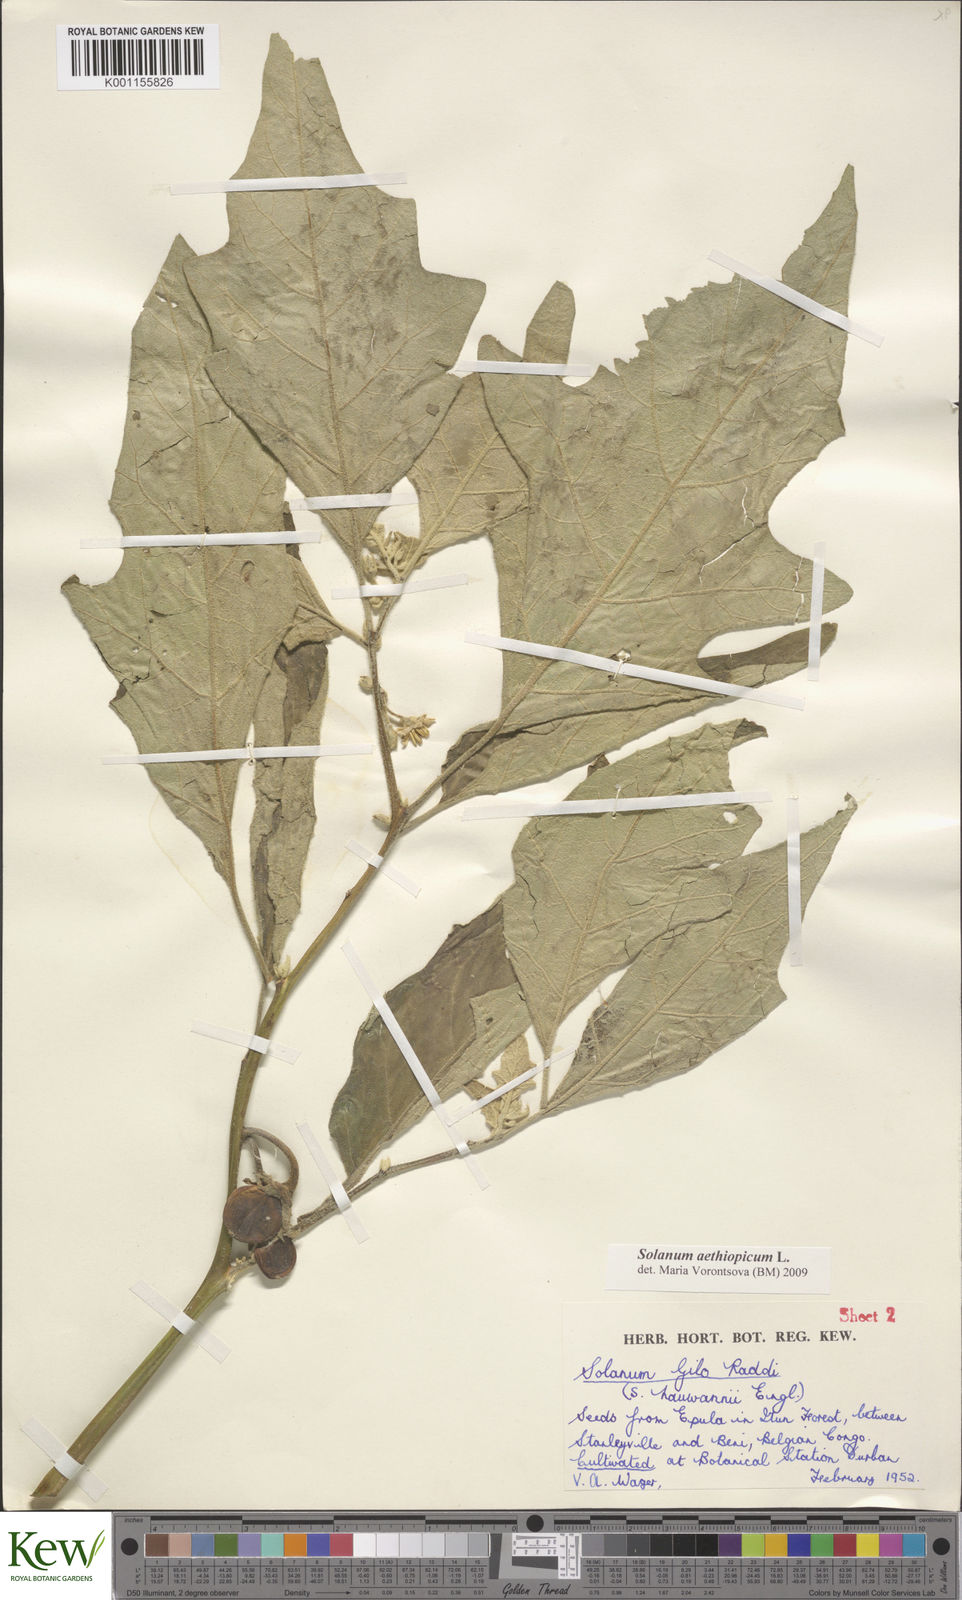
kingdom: Plantae
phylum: Tracheophyta
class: Magnoliopsida
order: Solanales
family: Solanaceae
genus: Solanum
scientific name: Solanum aethiopicum
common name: Gilo
